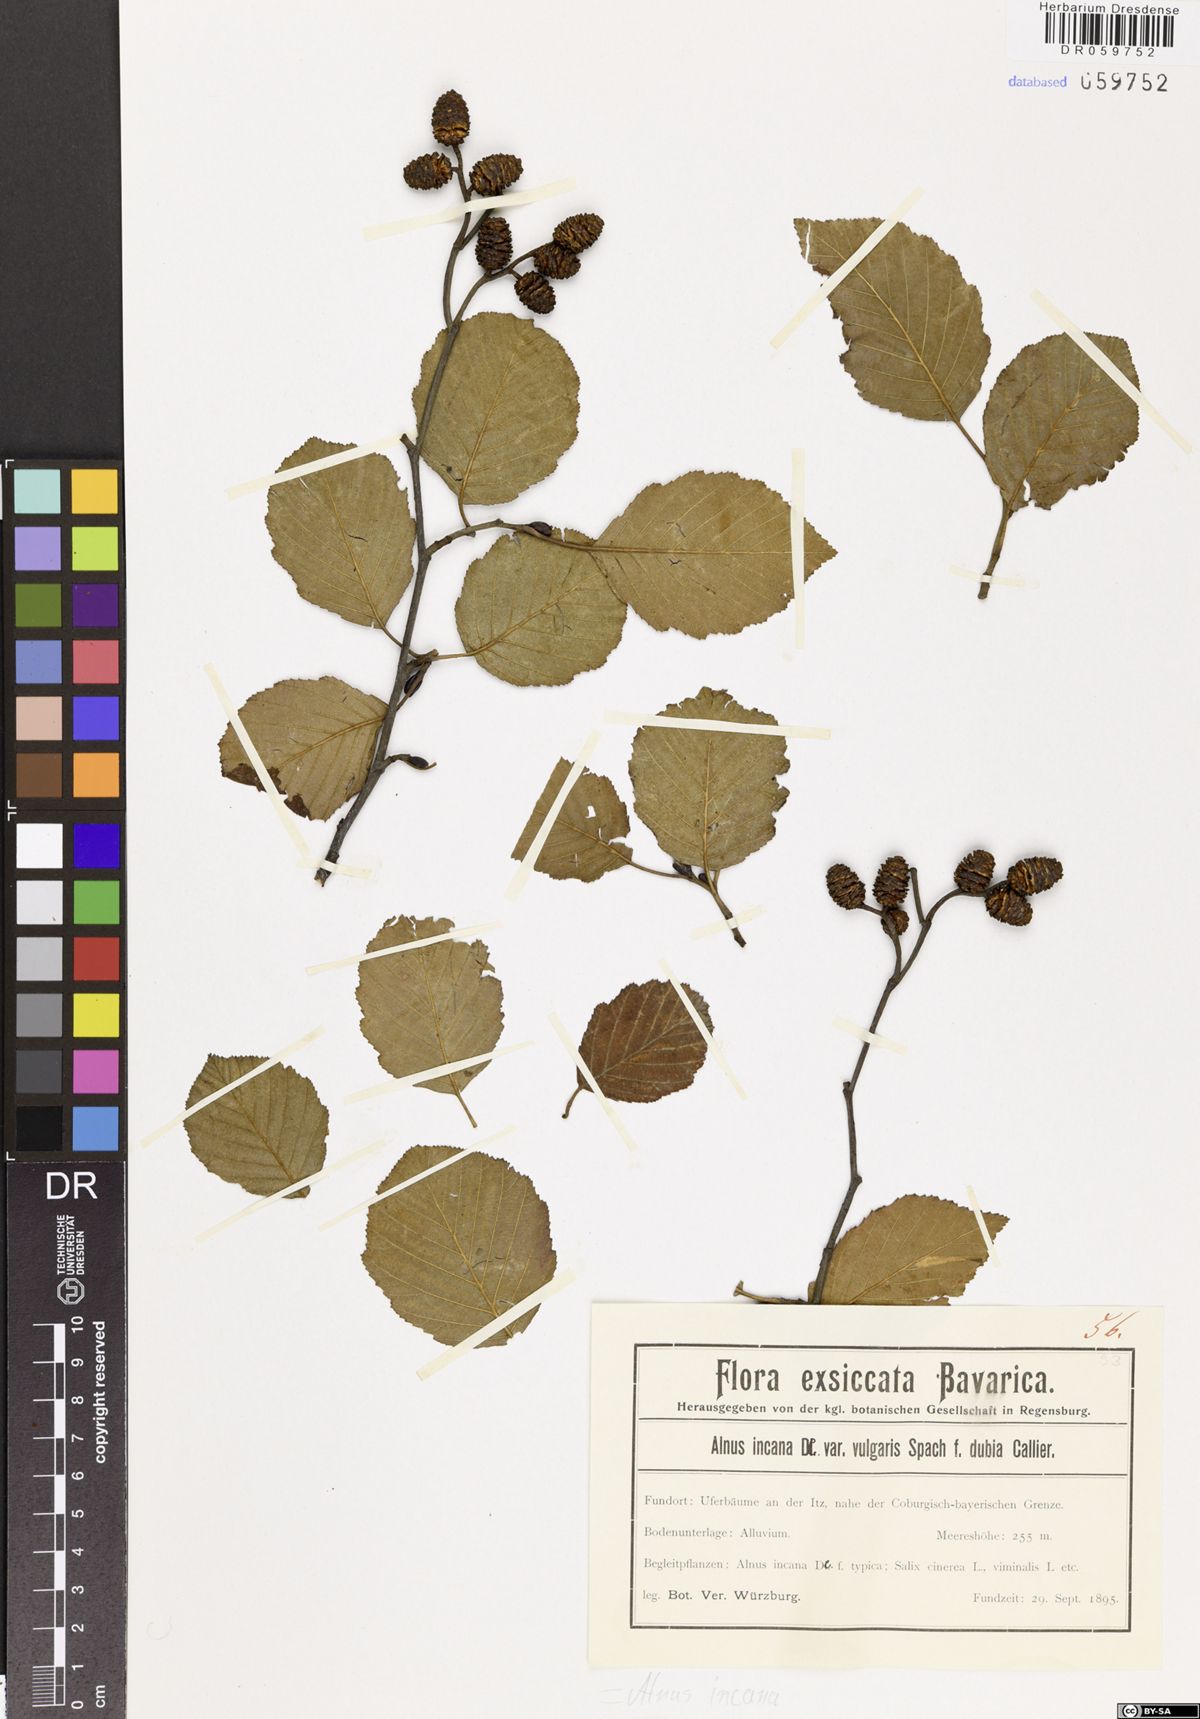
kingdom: Plantae
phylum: Tracheophyta
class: Magnoliopsida
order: Fagales
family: Betulaceae
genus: Alnus
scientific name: Alnus incana
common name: Grey alder
